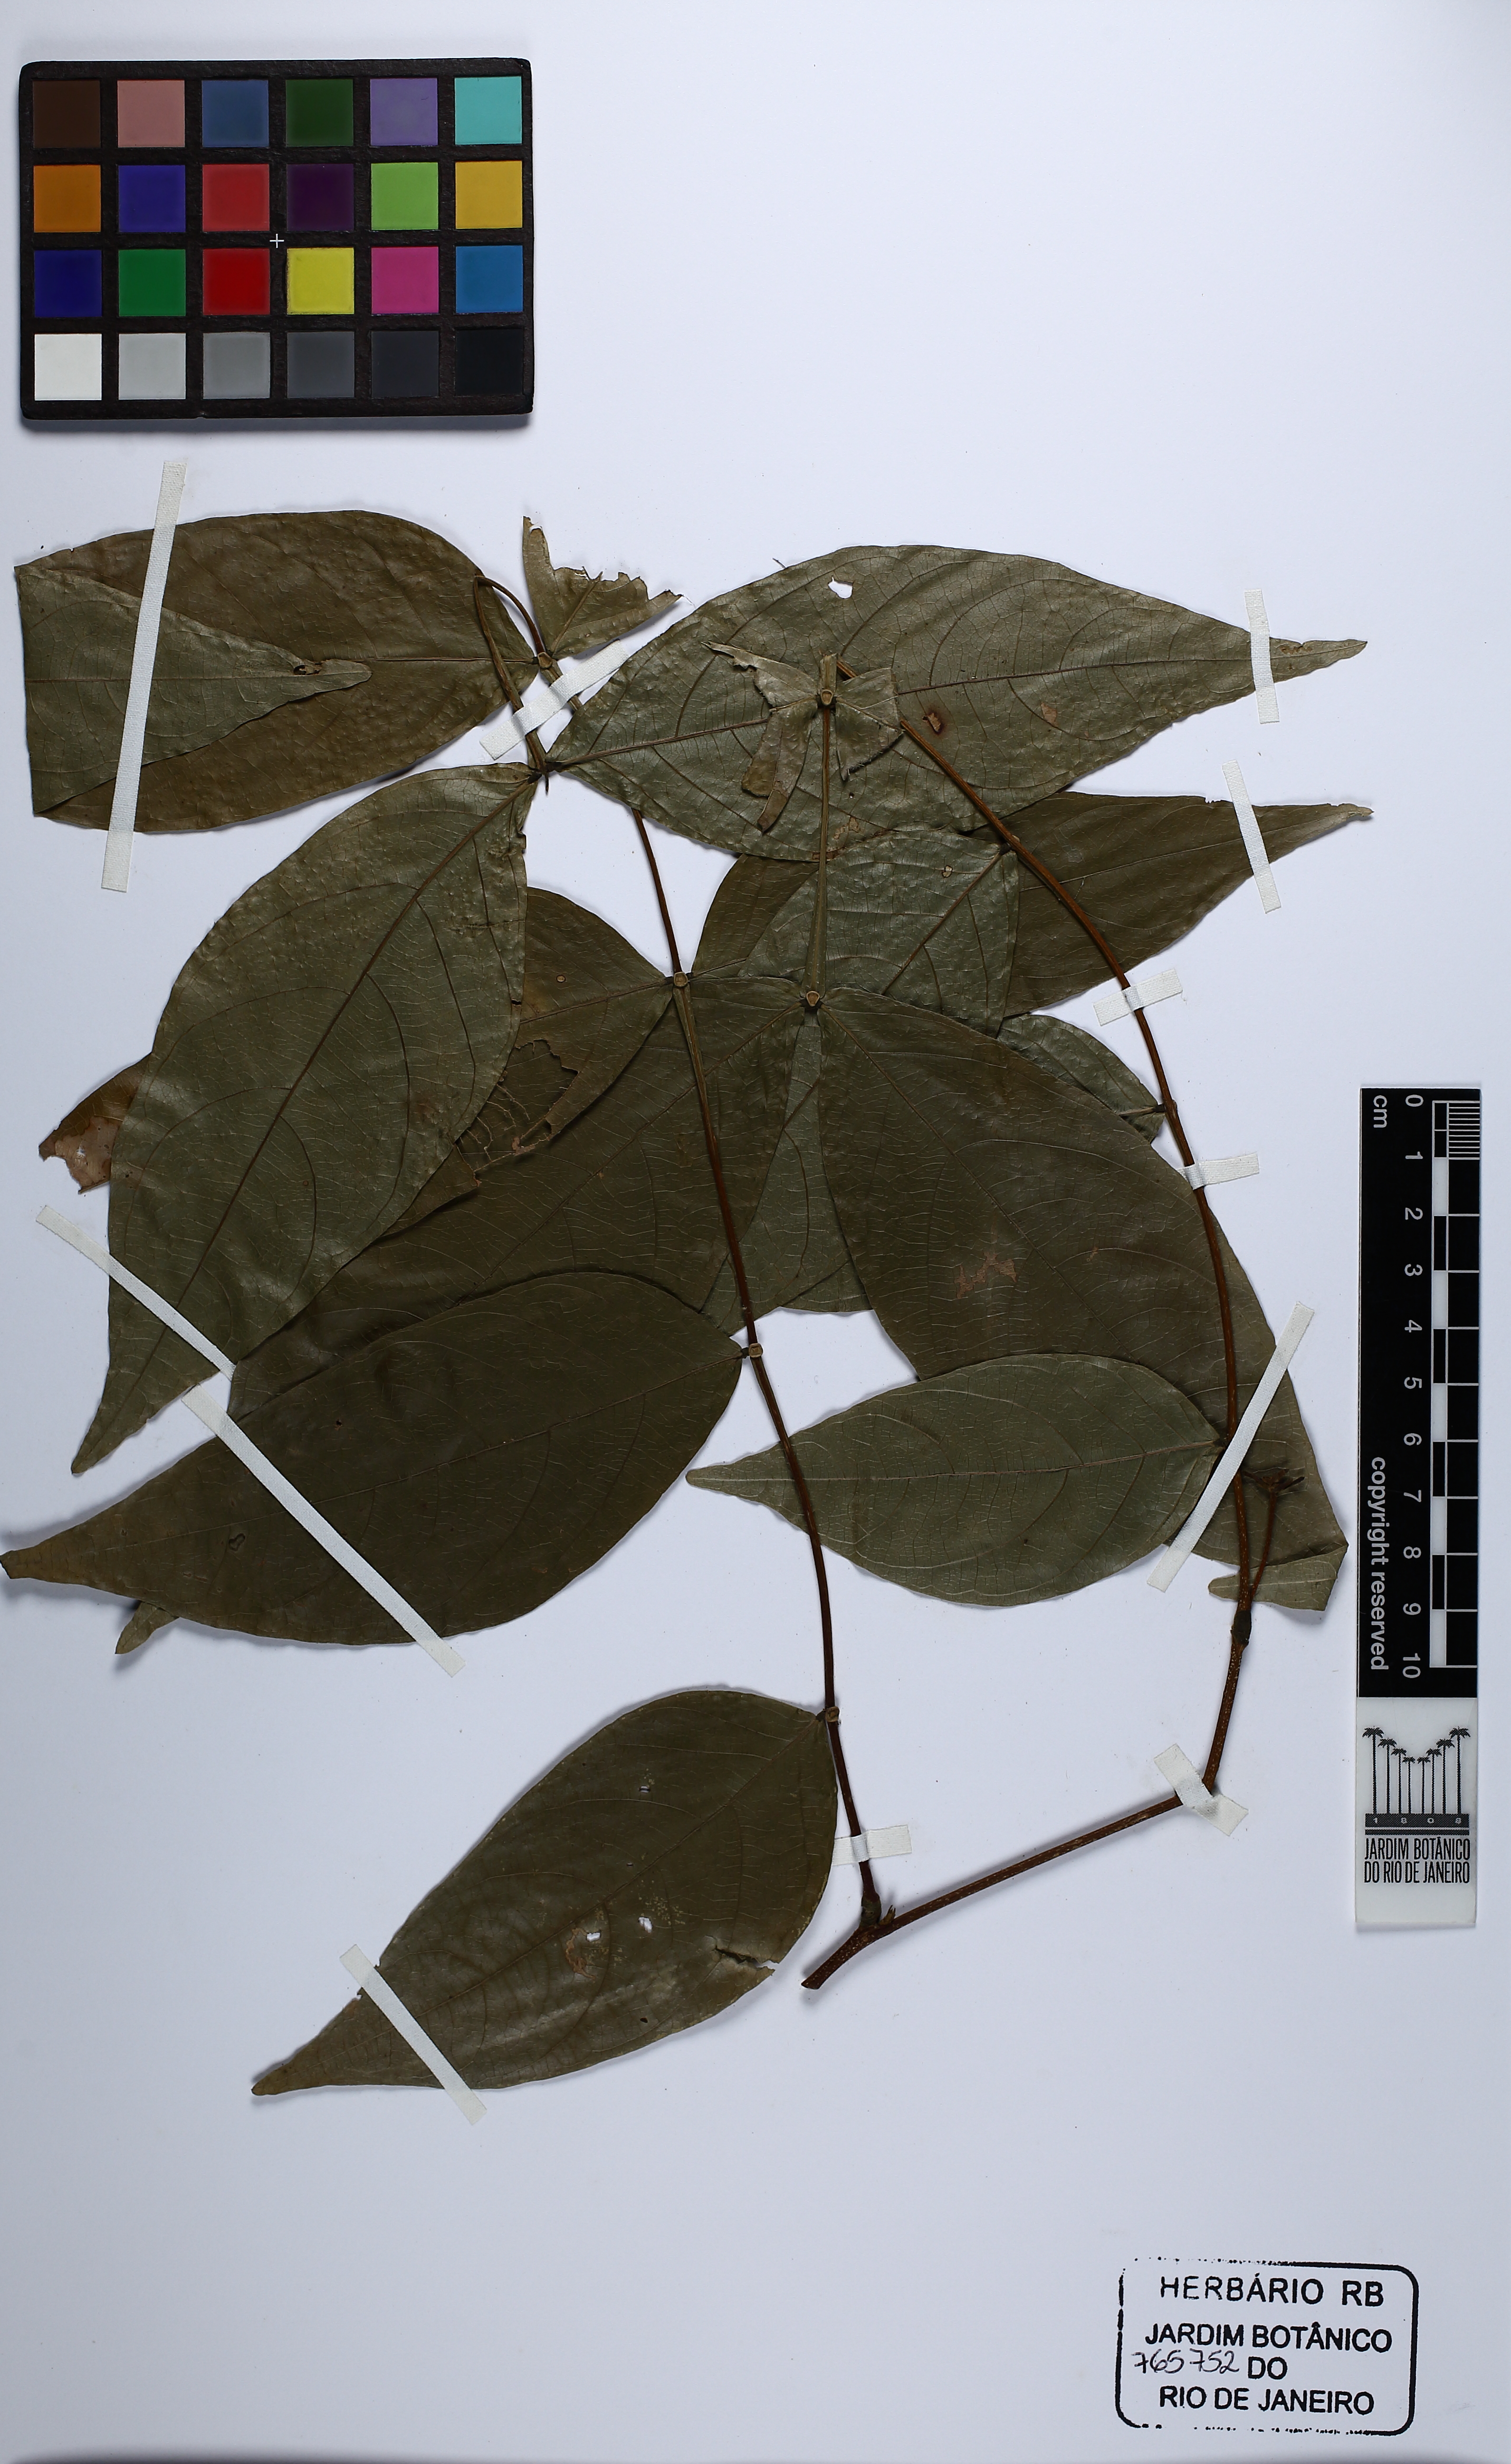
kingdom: Plantae
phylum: Tracheophyta
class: Magnoliopsida
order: Fabales
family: Fabaceae
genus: Inga
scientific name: Inga alba
